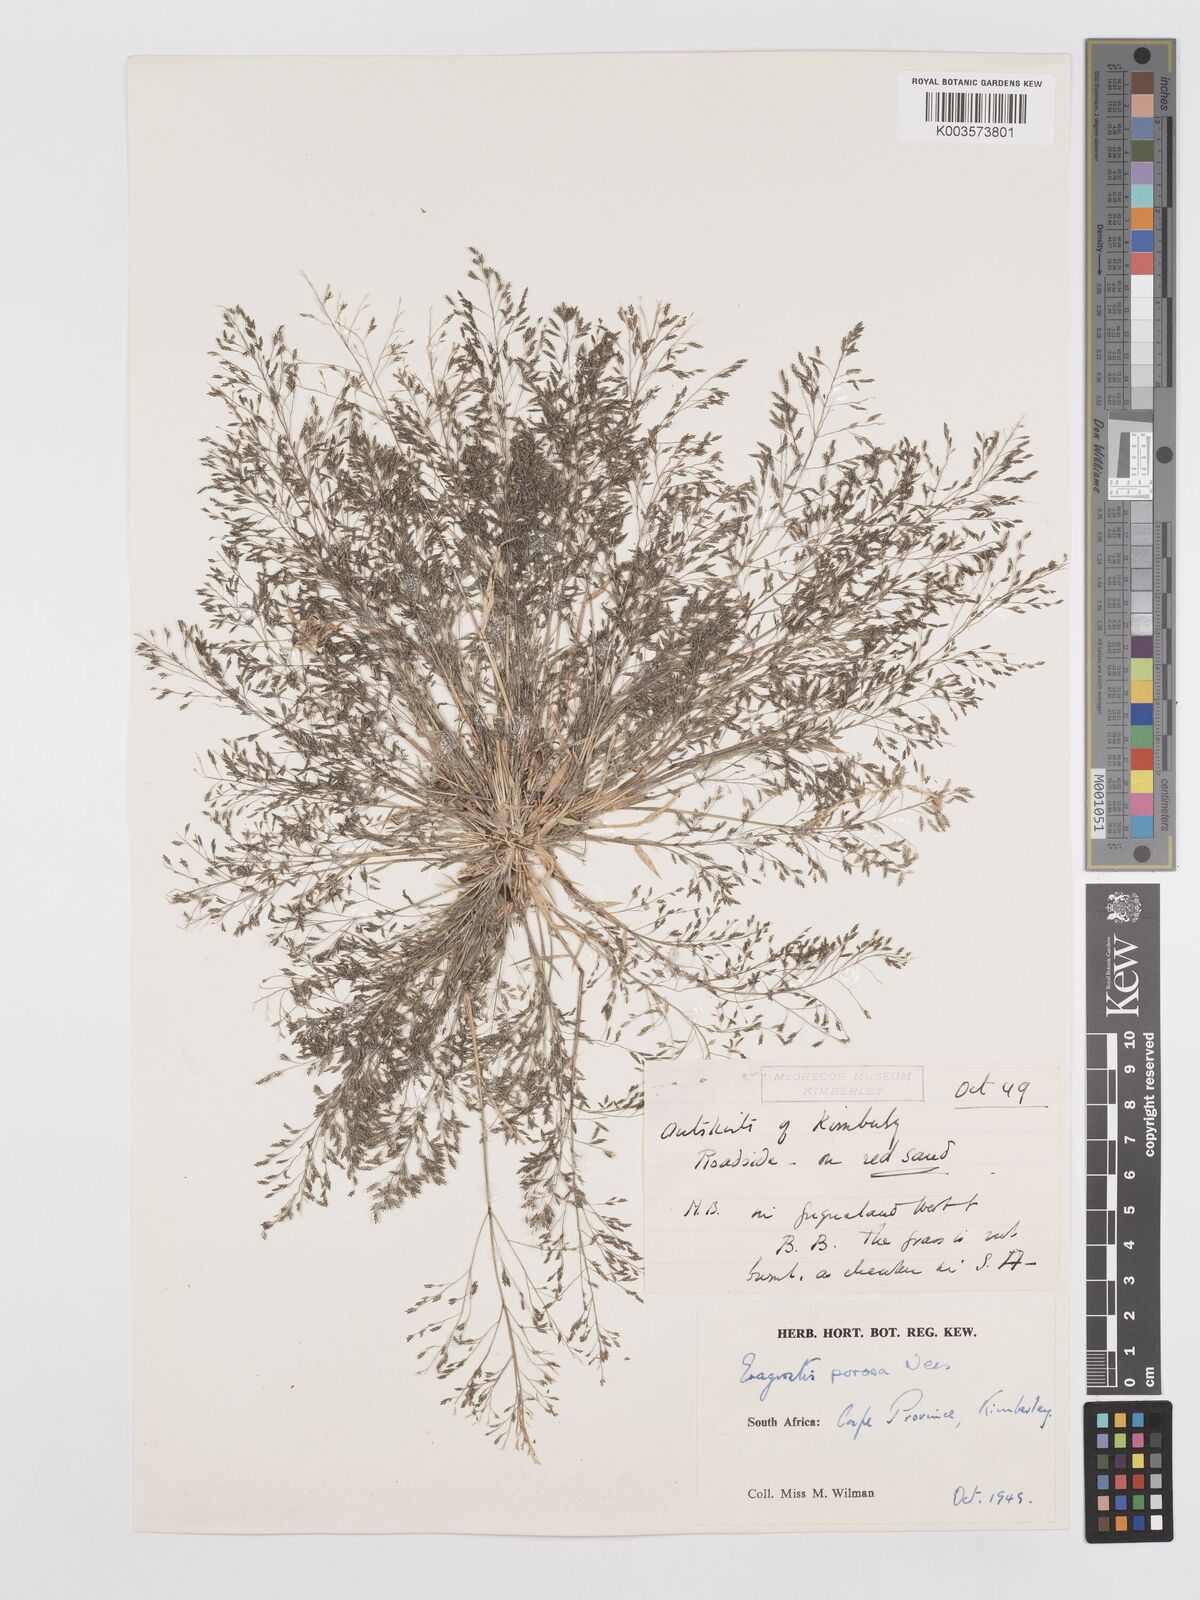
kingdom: Plantae
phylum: Tracheophyta
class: Liliopsida
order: Poales
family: Poaceae
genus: Eragrostis
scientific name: Eragrostis porosa
